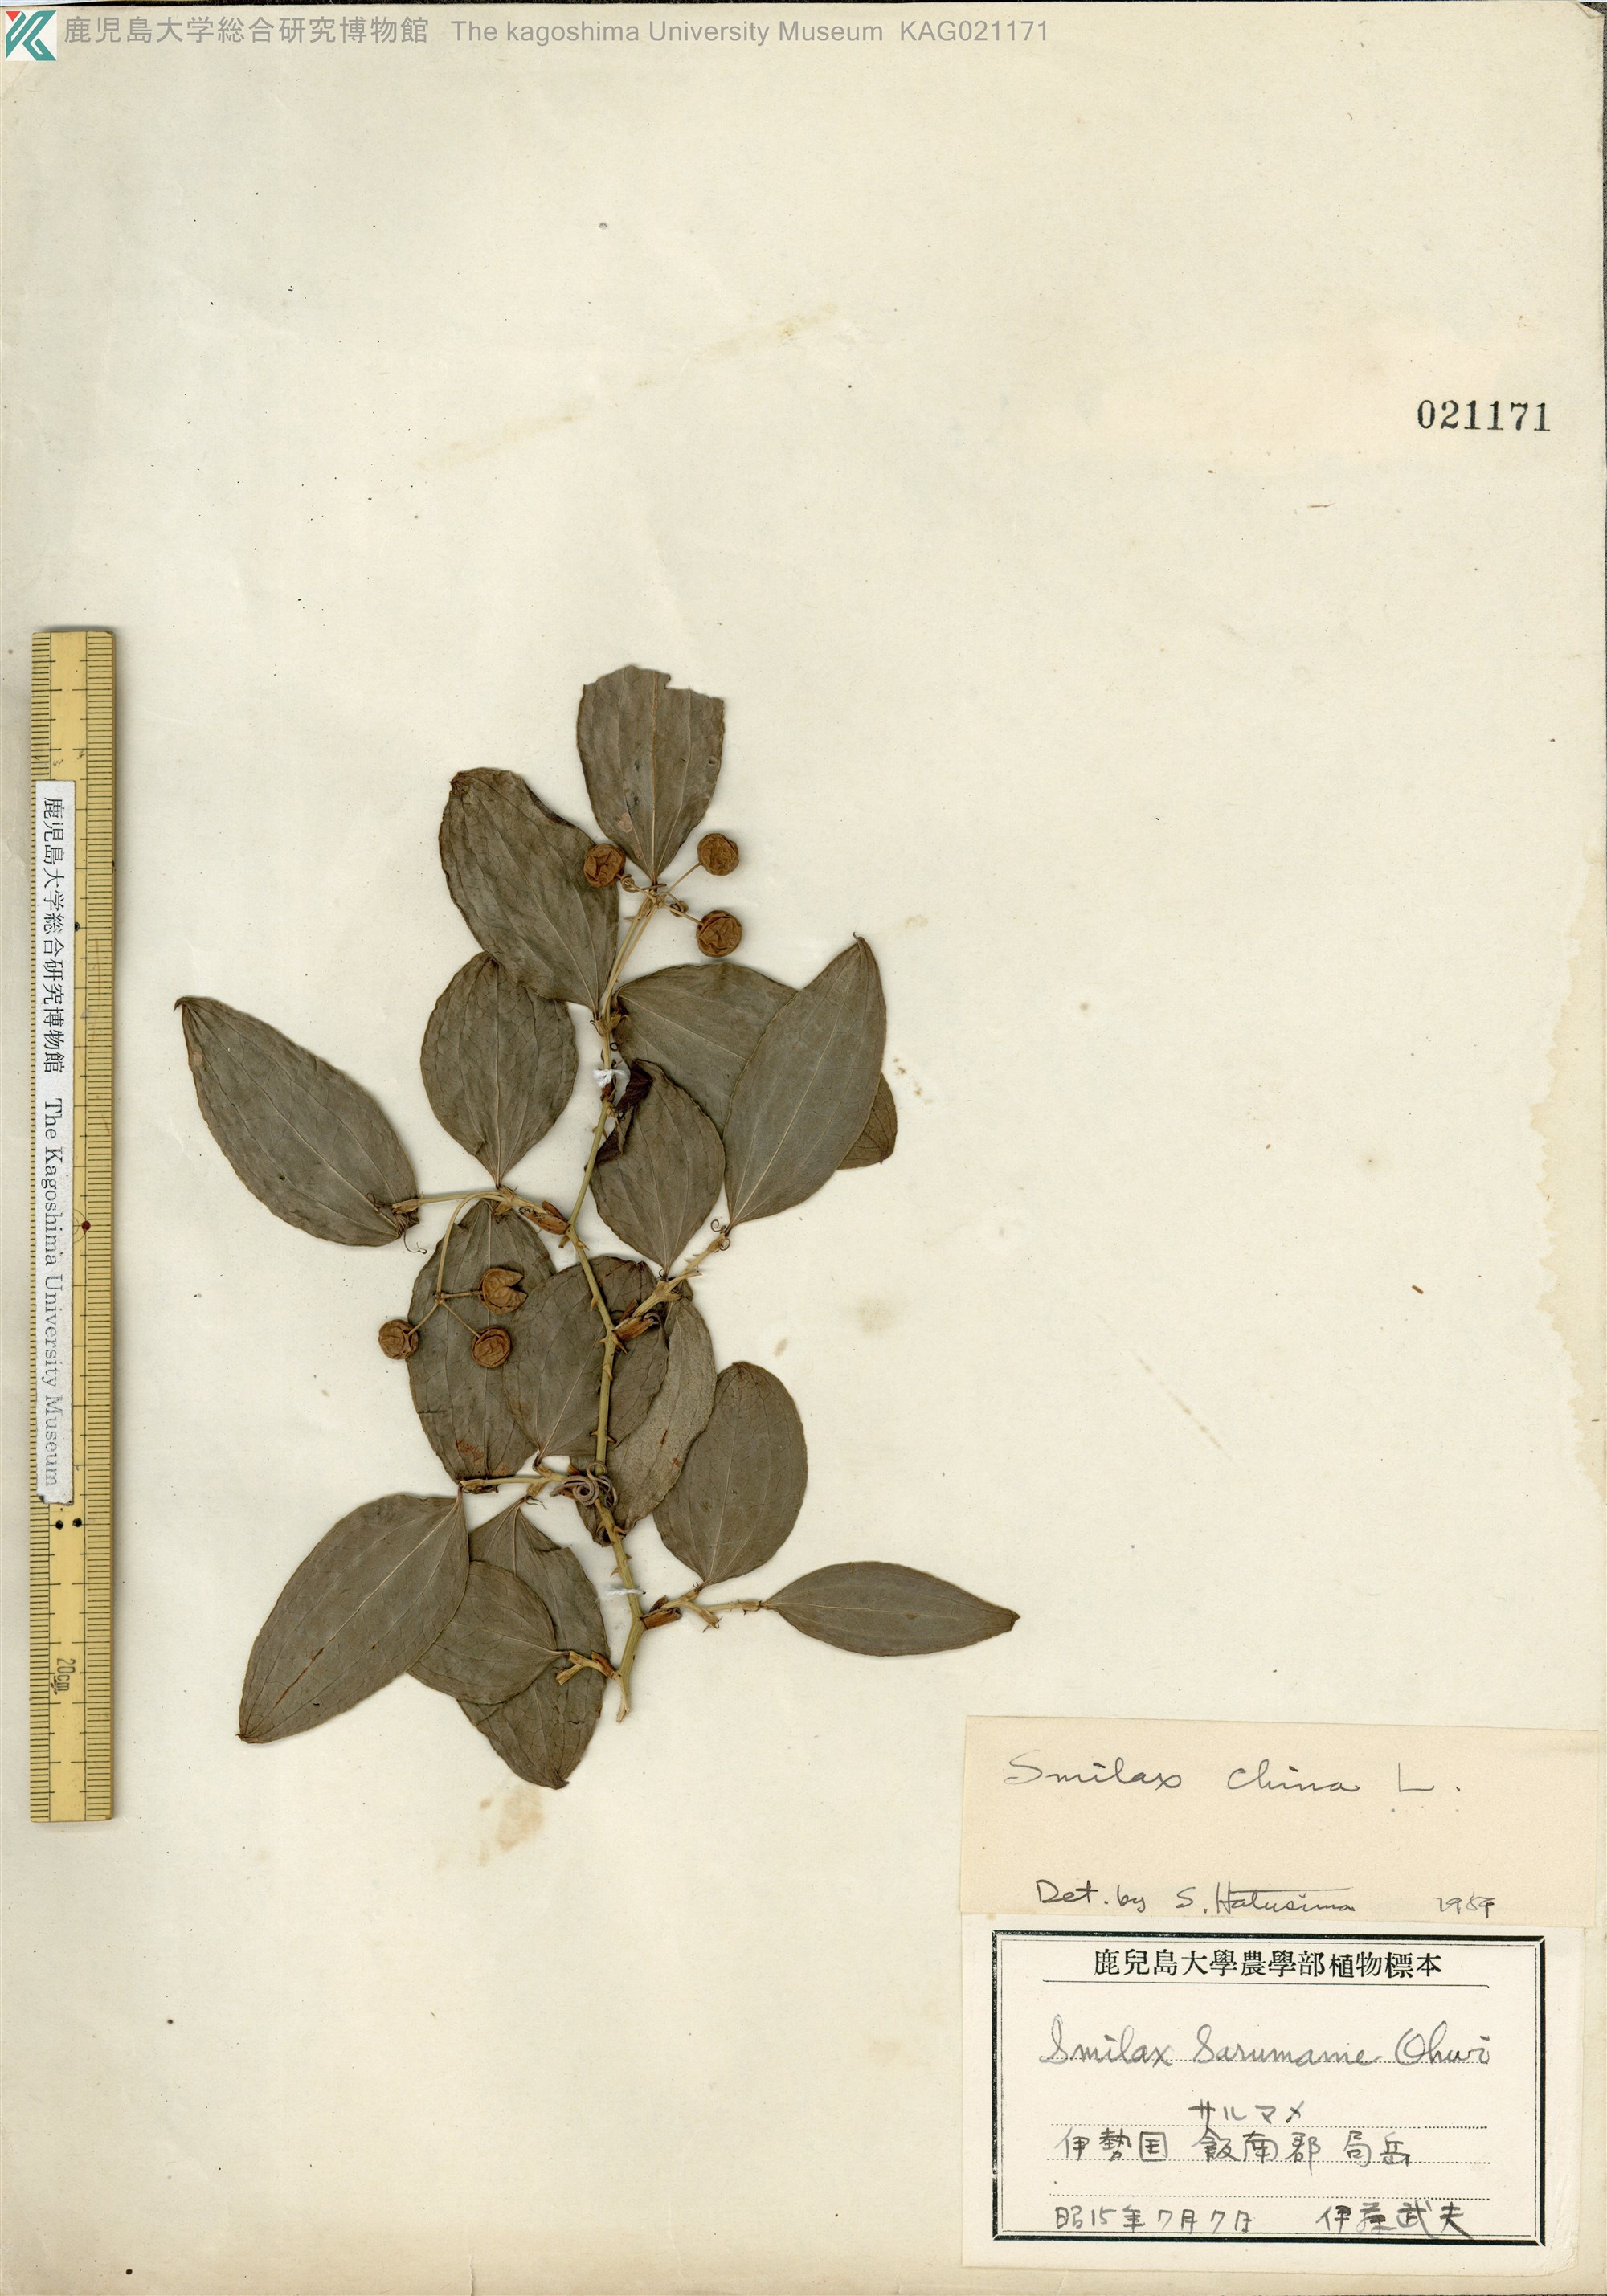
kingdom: Plantae
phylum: Tracheophyta
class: Liliopsida
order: Liliales
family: Smilacaceae
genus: Smilax
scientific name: Smilax china
